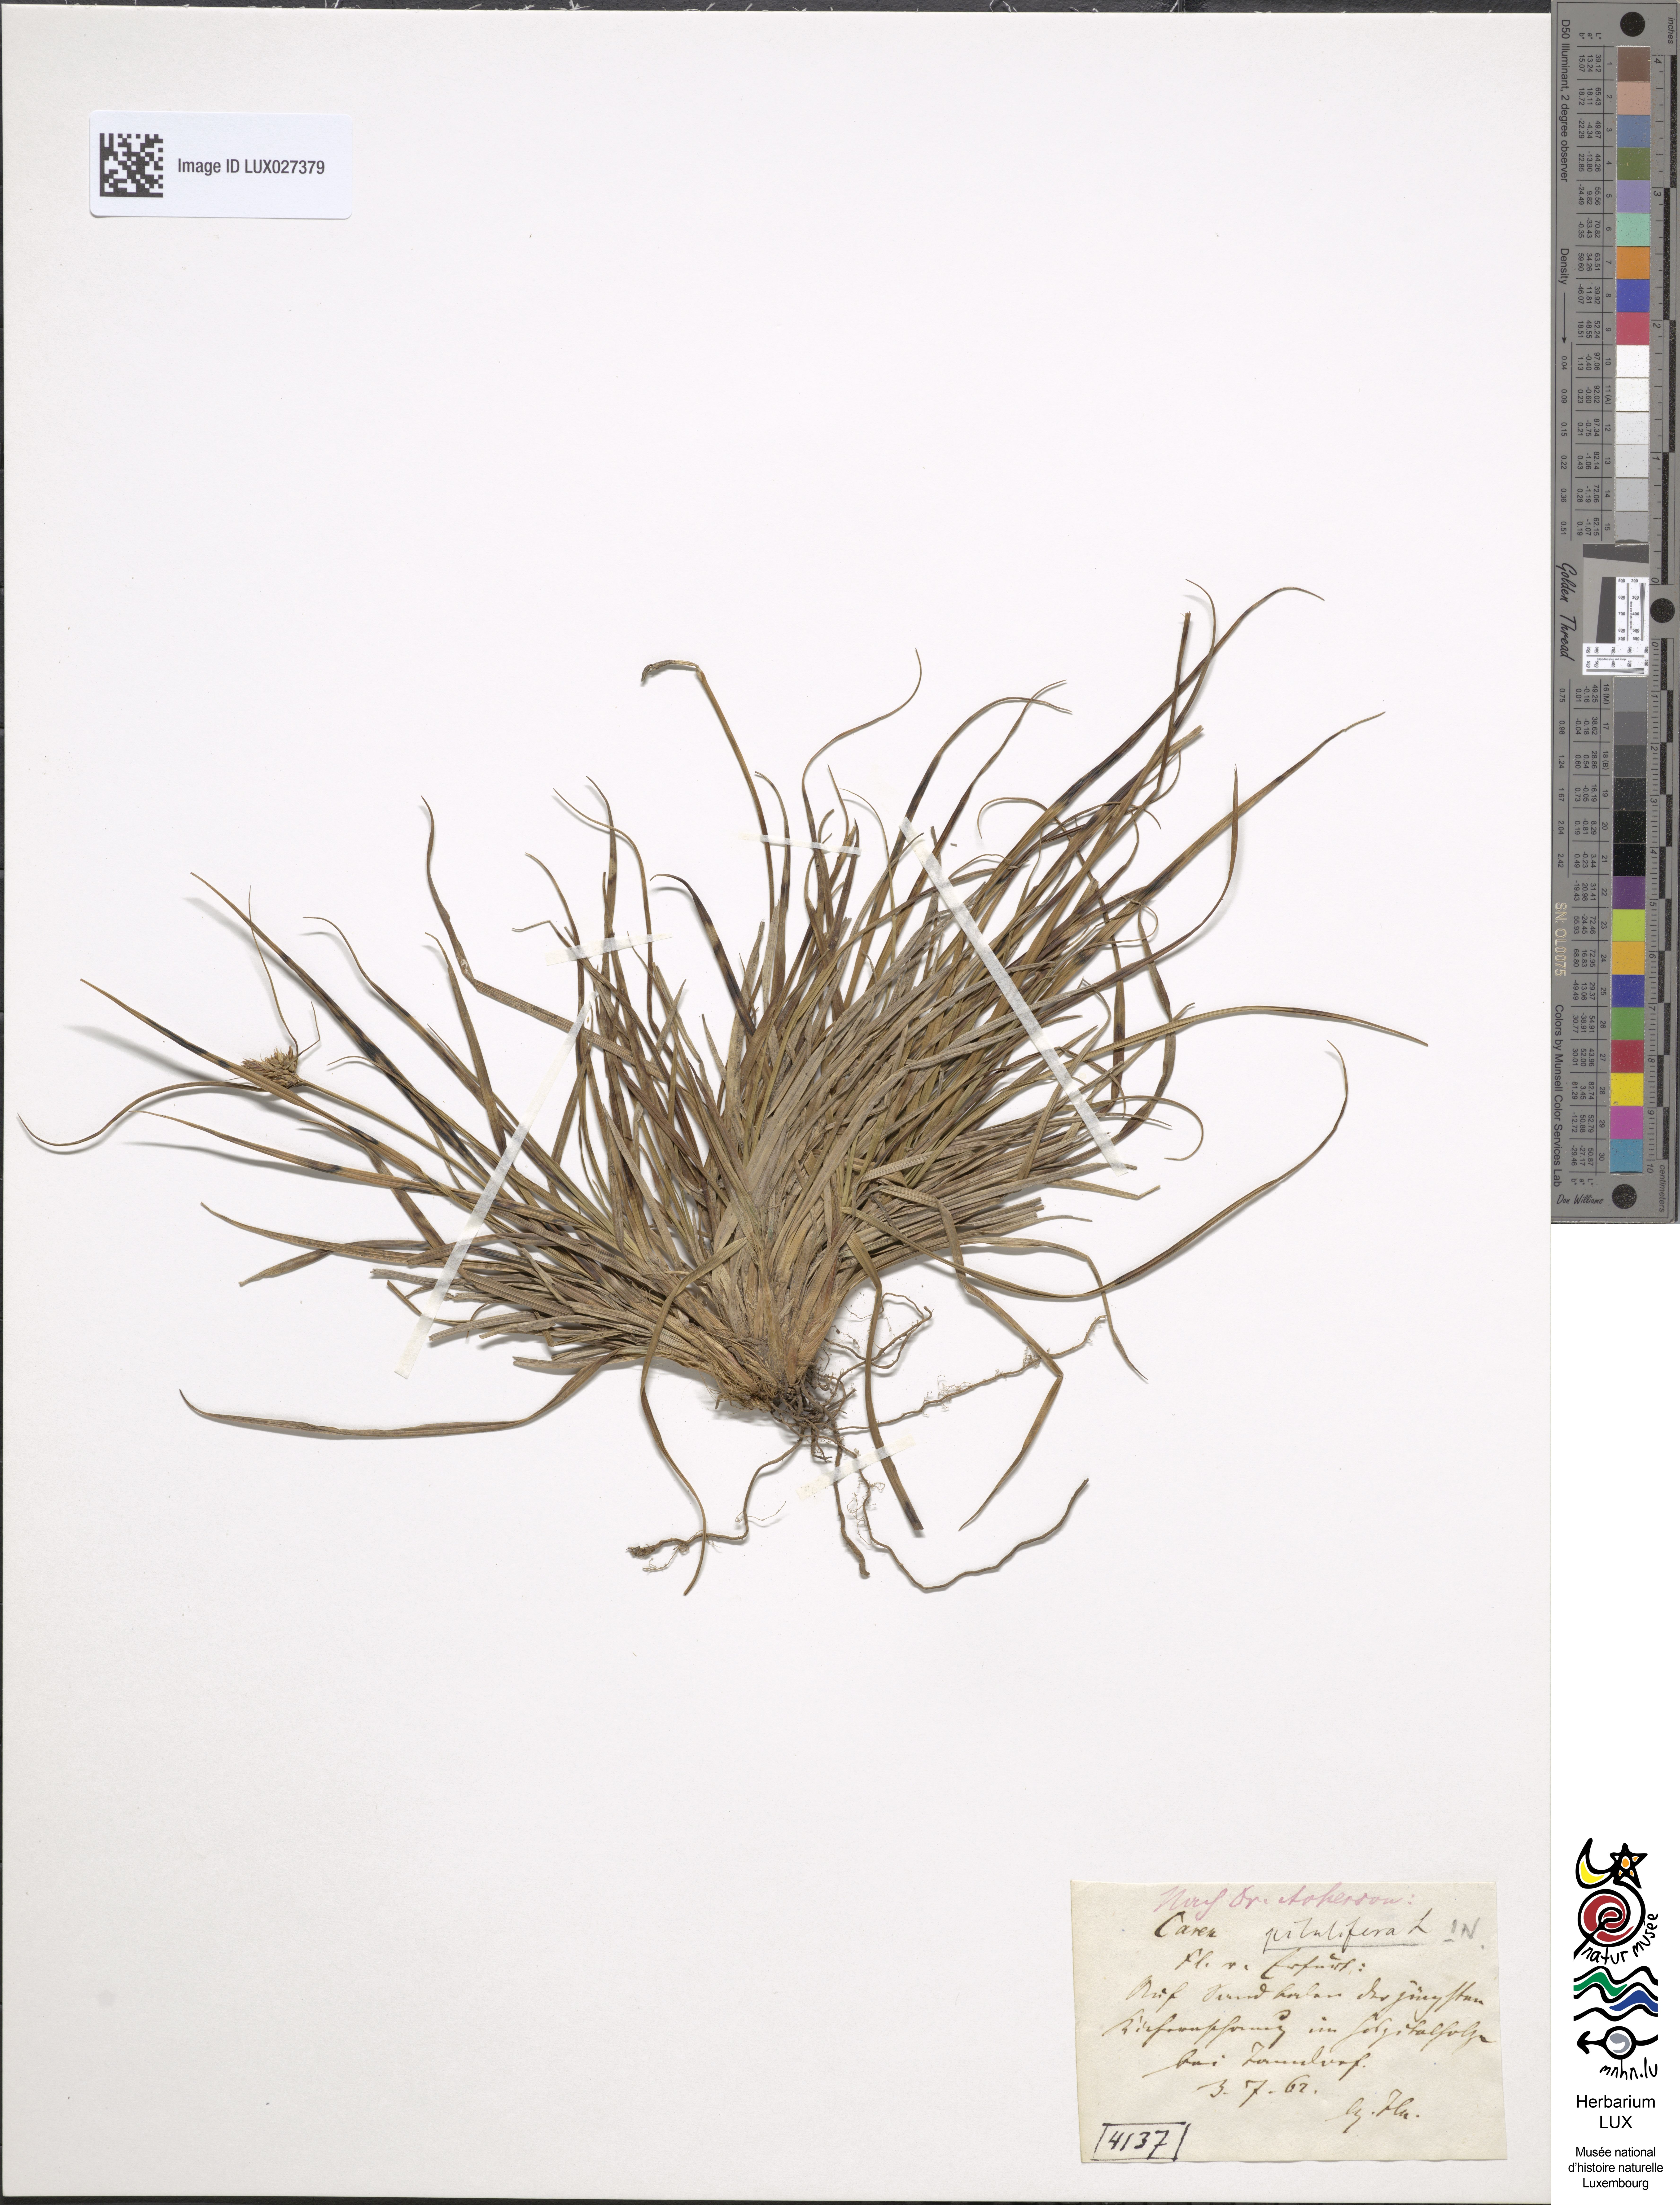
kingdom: Plantae
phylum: Tracheophyta
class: Liliopsida
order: Poales
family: Cyperaceae
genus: Carex
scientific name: Carex pilulifera
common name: Pill sedge
